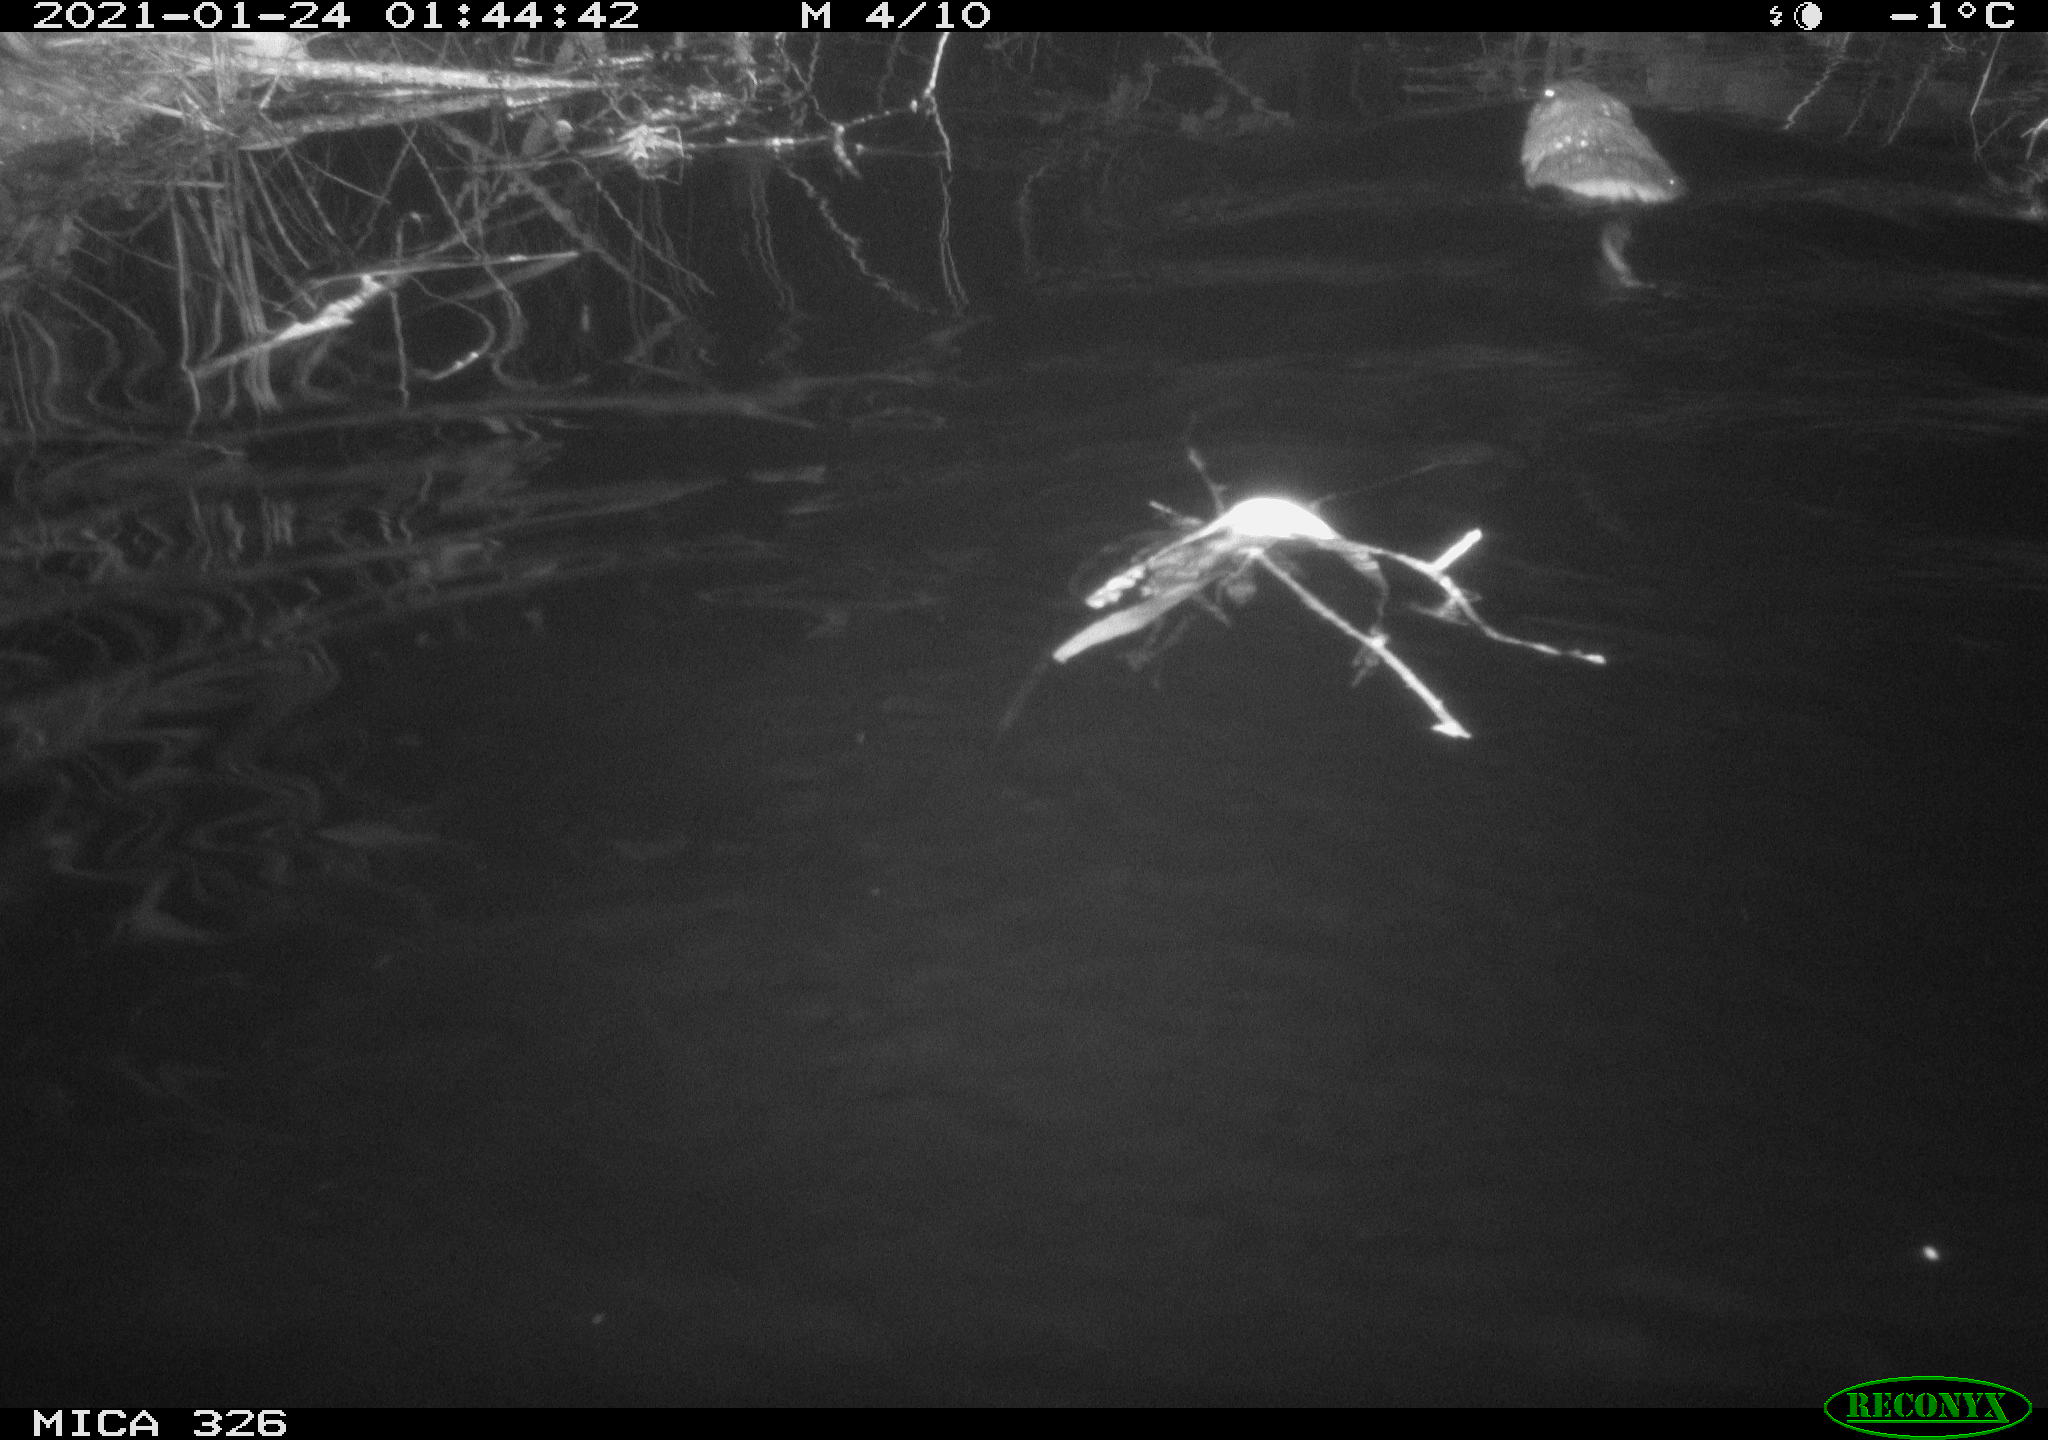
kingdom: Animalia
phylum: Chordata
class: Mammalia
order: Rodentia
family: Cricetidae
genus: Ondatra
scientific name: Ondatra zibethicus
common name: Muskrat
